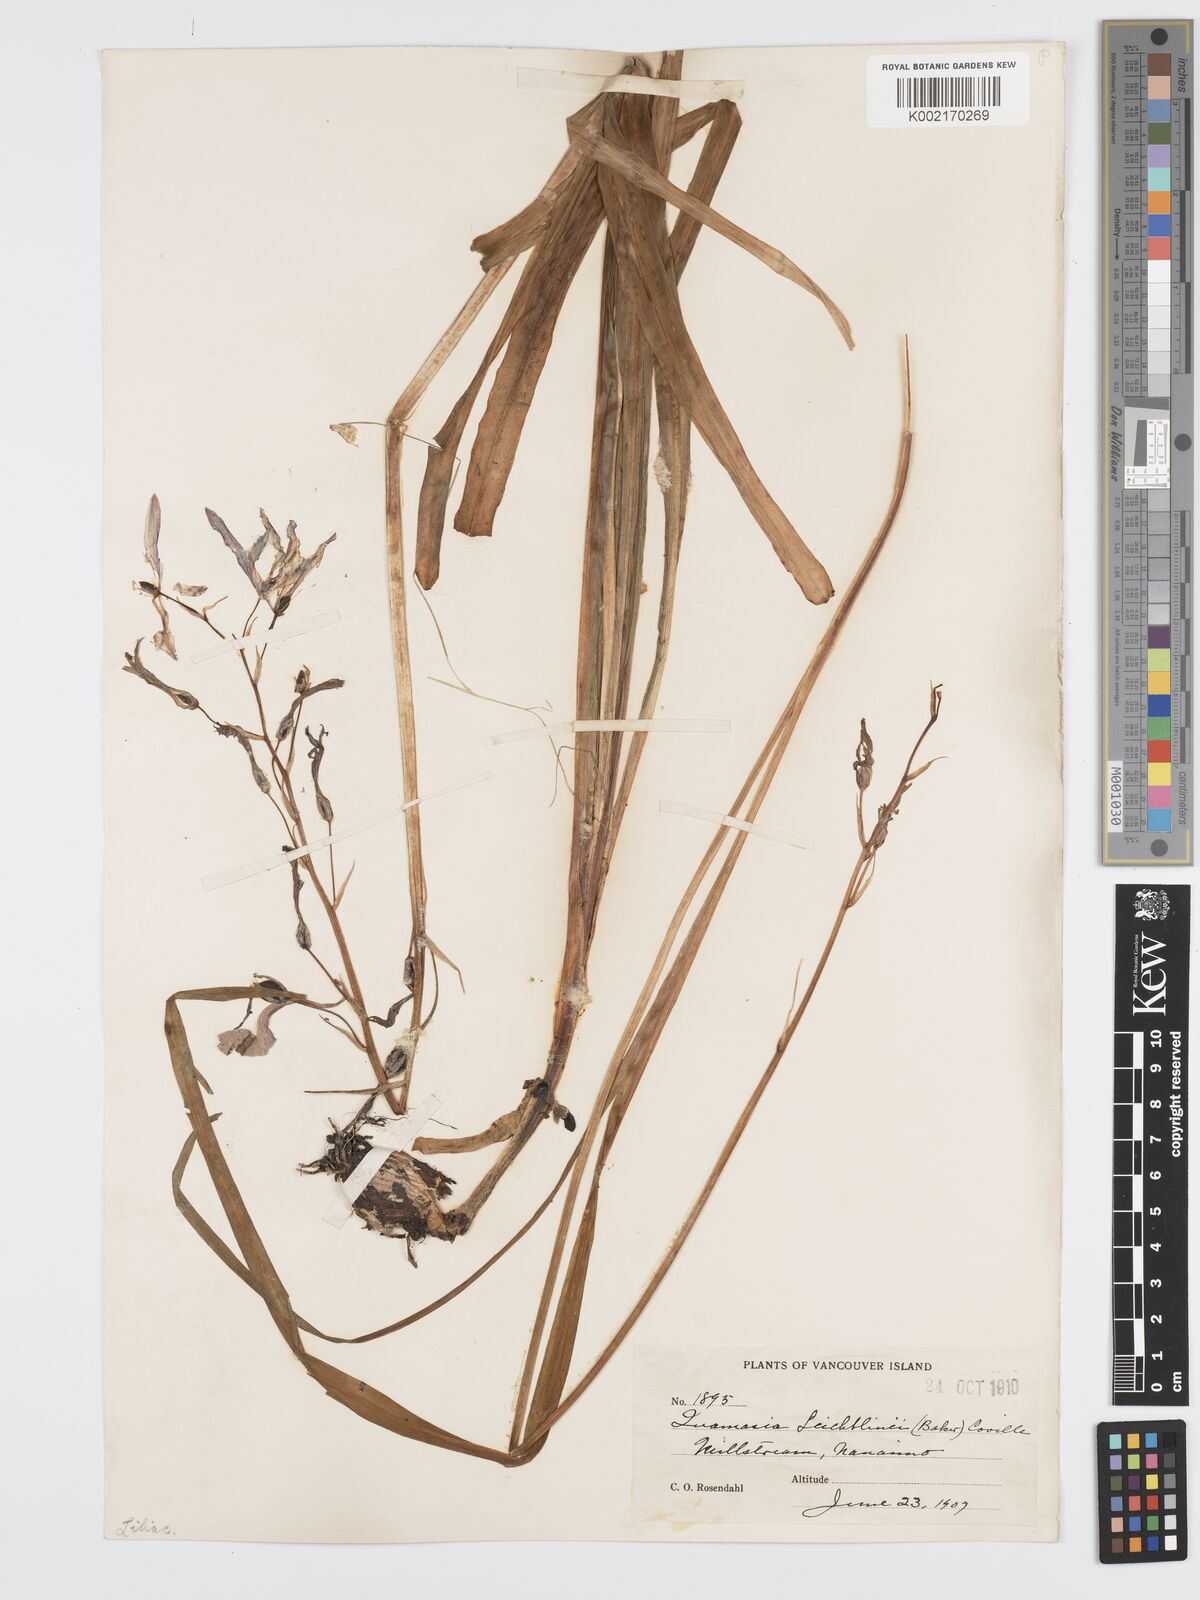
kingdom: Plantae
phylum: Tracheophyta
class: Liliopsida
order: Asparagales
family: Asparagaceae
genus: Camassia
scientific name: Camassia leichtlinii
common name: Leichtlin's camas
